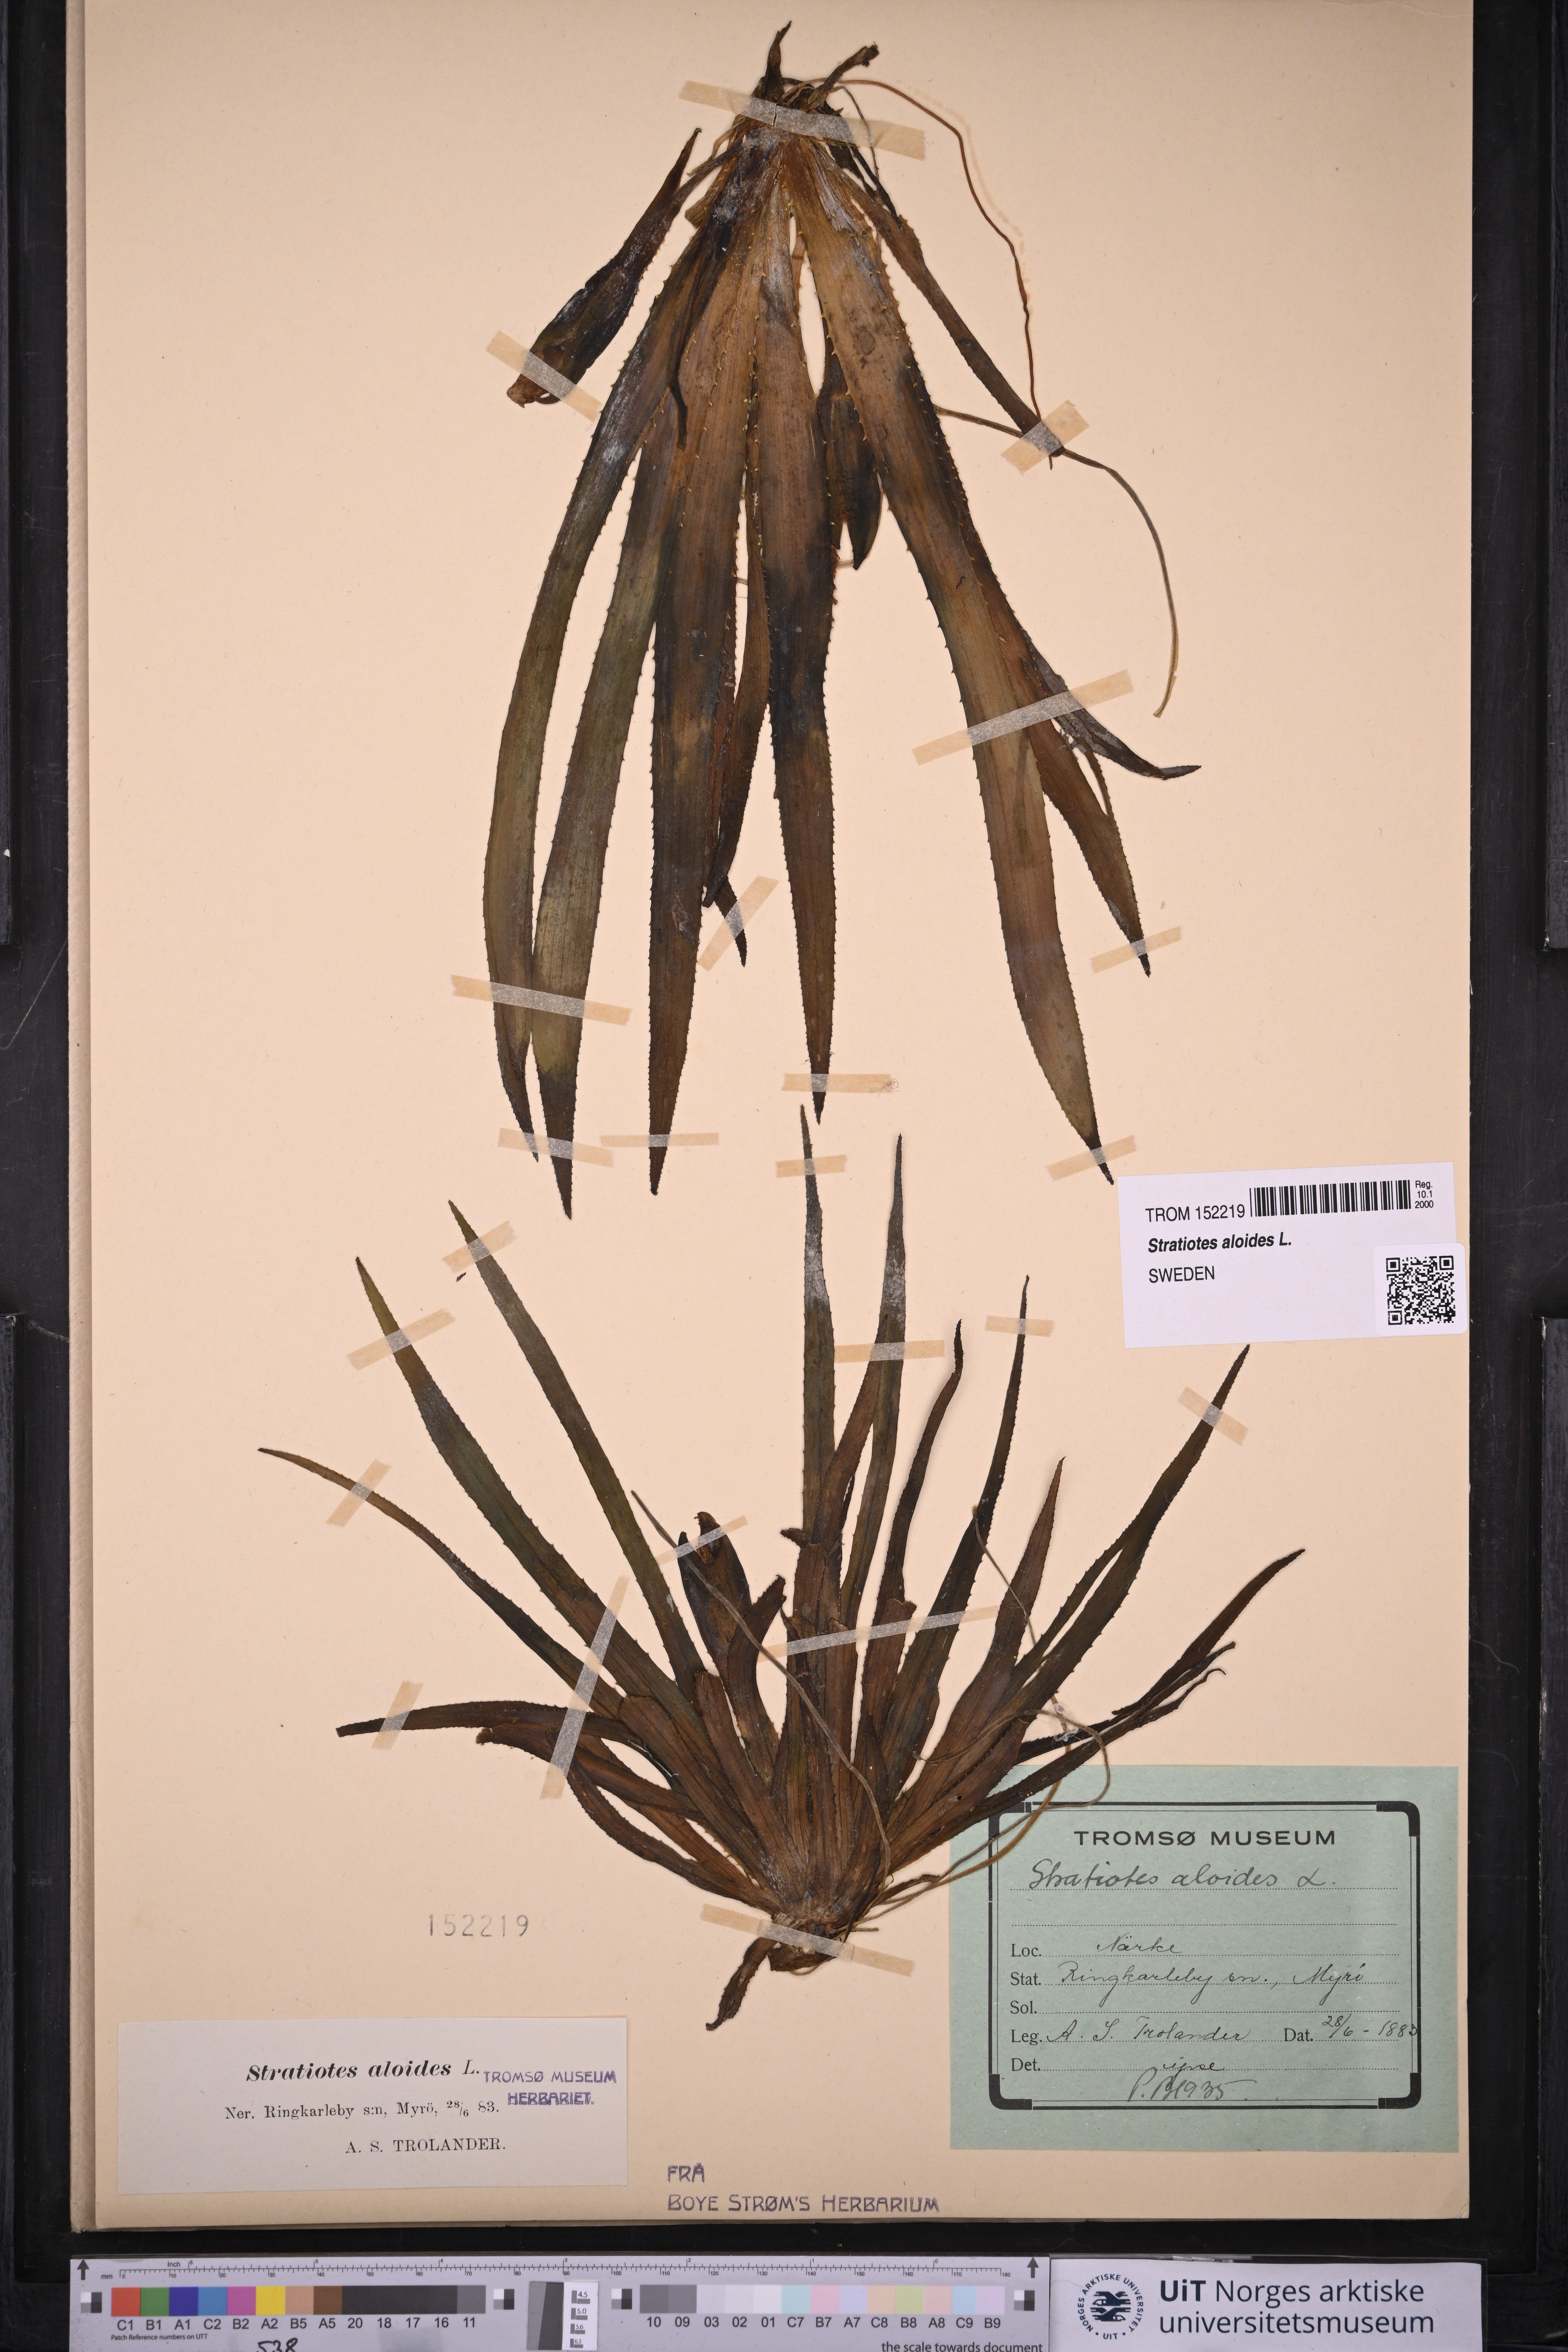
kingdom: Plantae
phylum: Tracheophyta
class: Liliopsida
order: Alismatales
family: Hydrocharitaceae
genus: Stratiotes
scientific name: Stratiotes aloides
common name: Water-soldier
